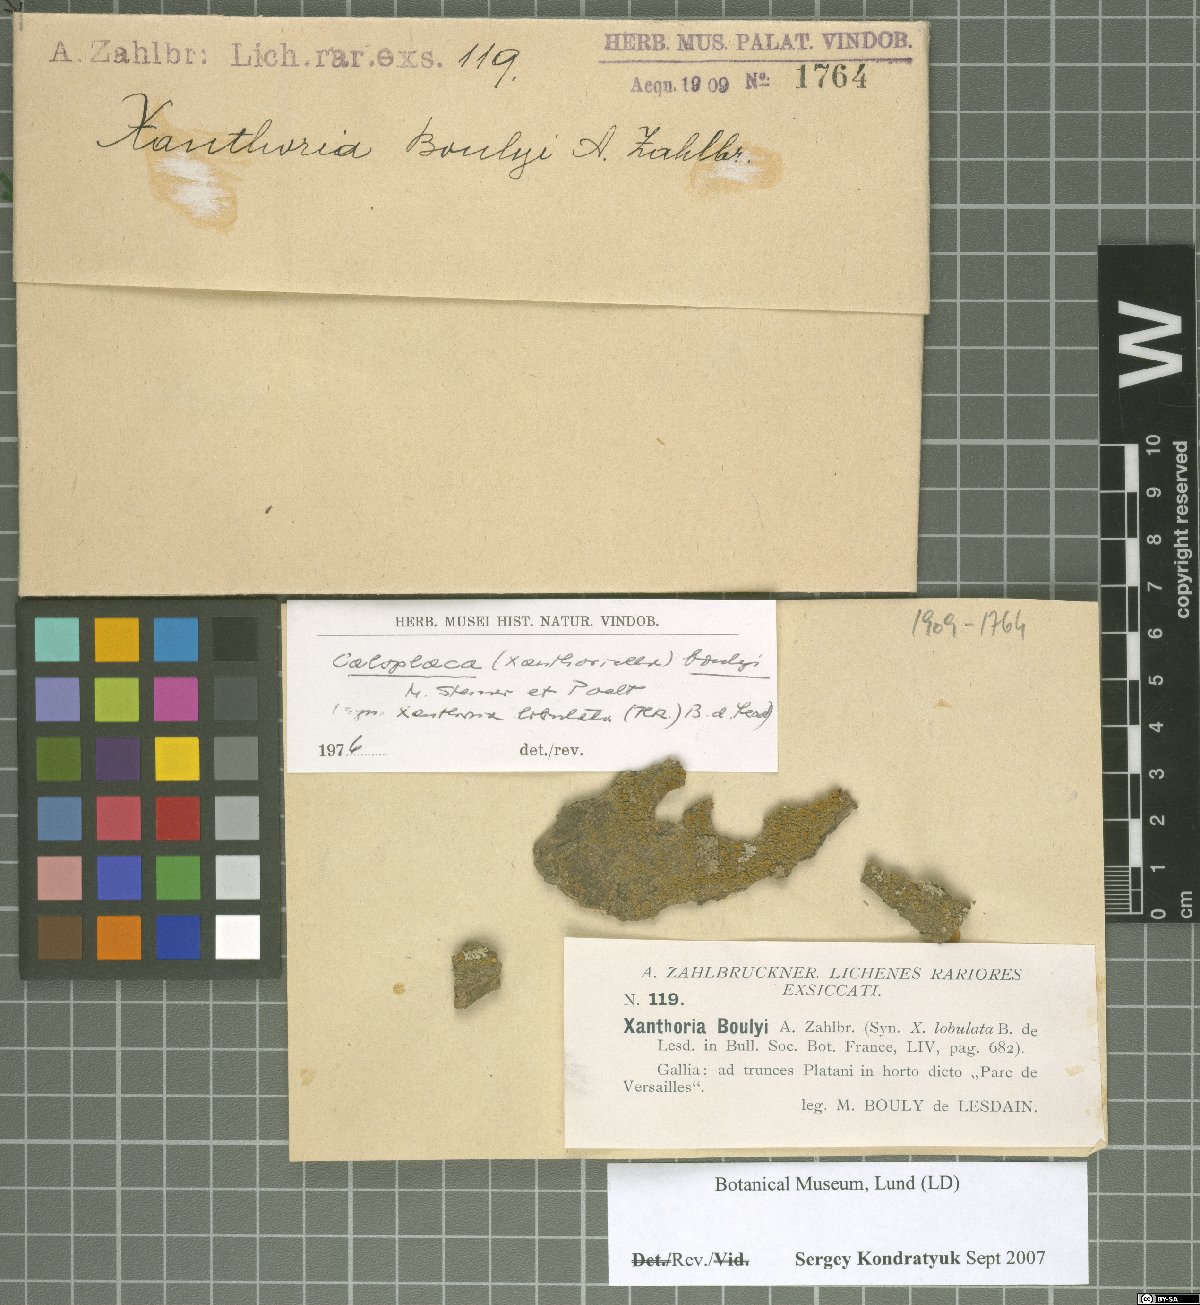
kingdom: Fungi
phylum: Ascomycota
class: Lecanoromycetes
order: Teloschistales
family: Teloschistaceae
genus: Seawardiella
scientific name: Seawardiella lobulata
